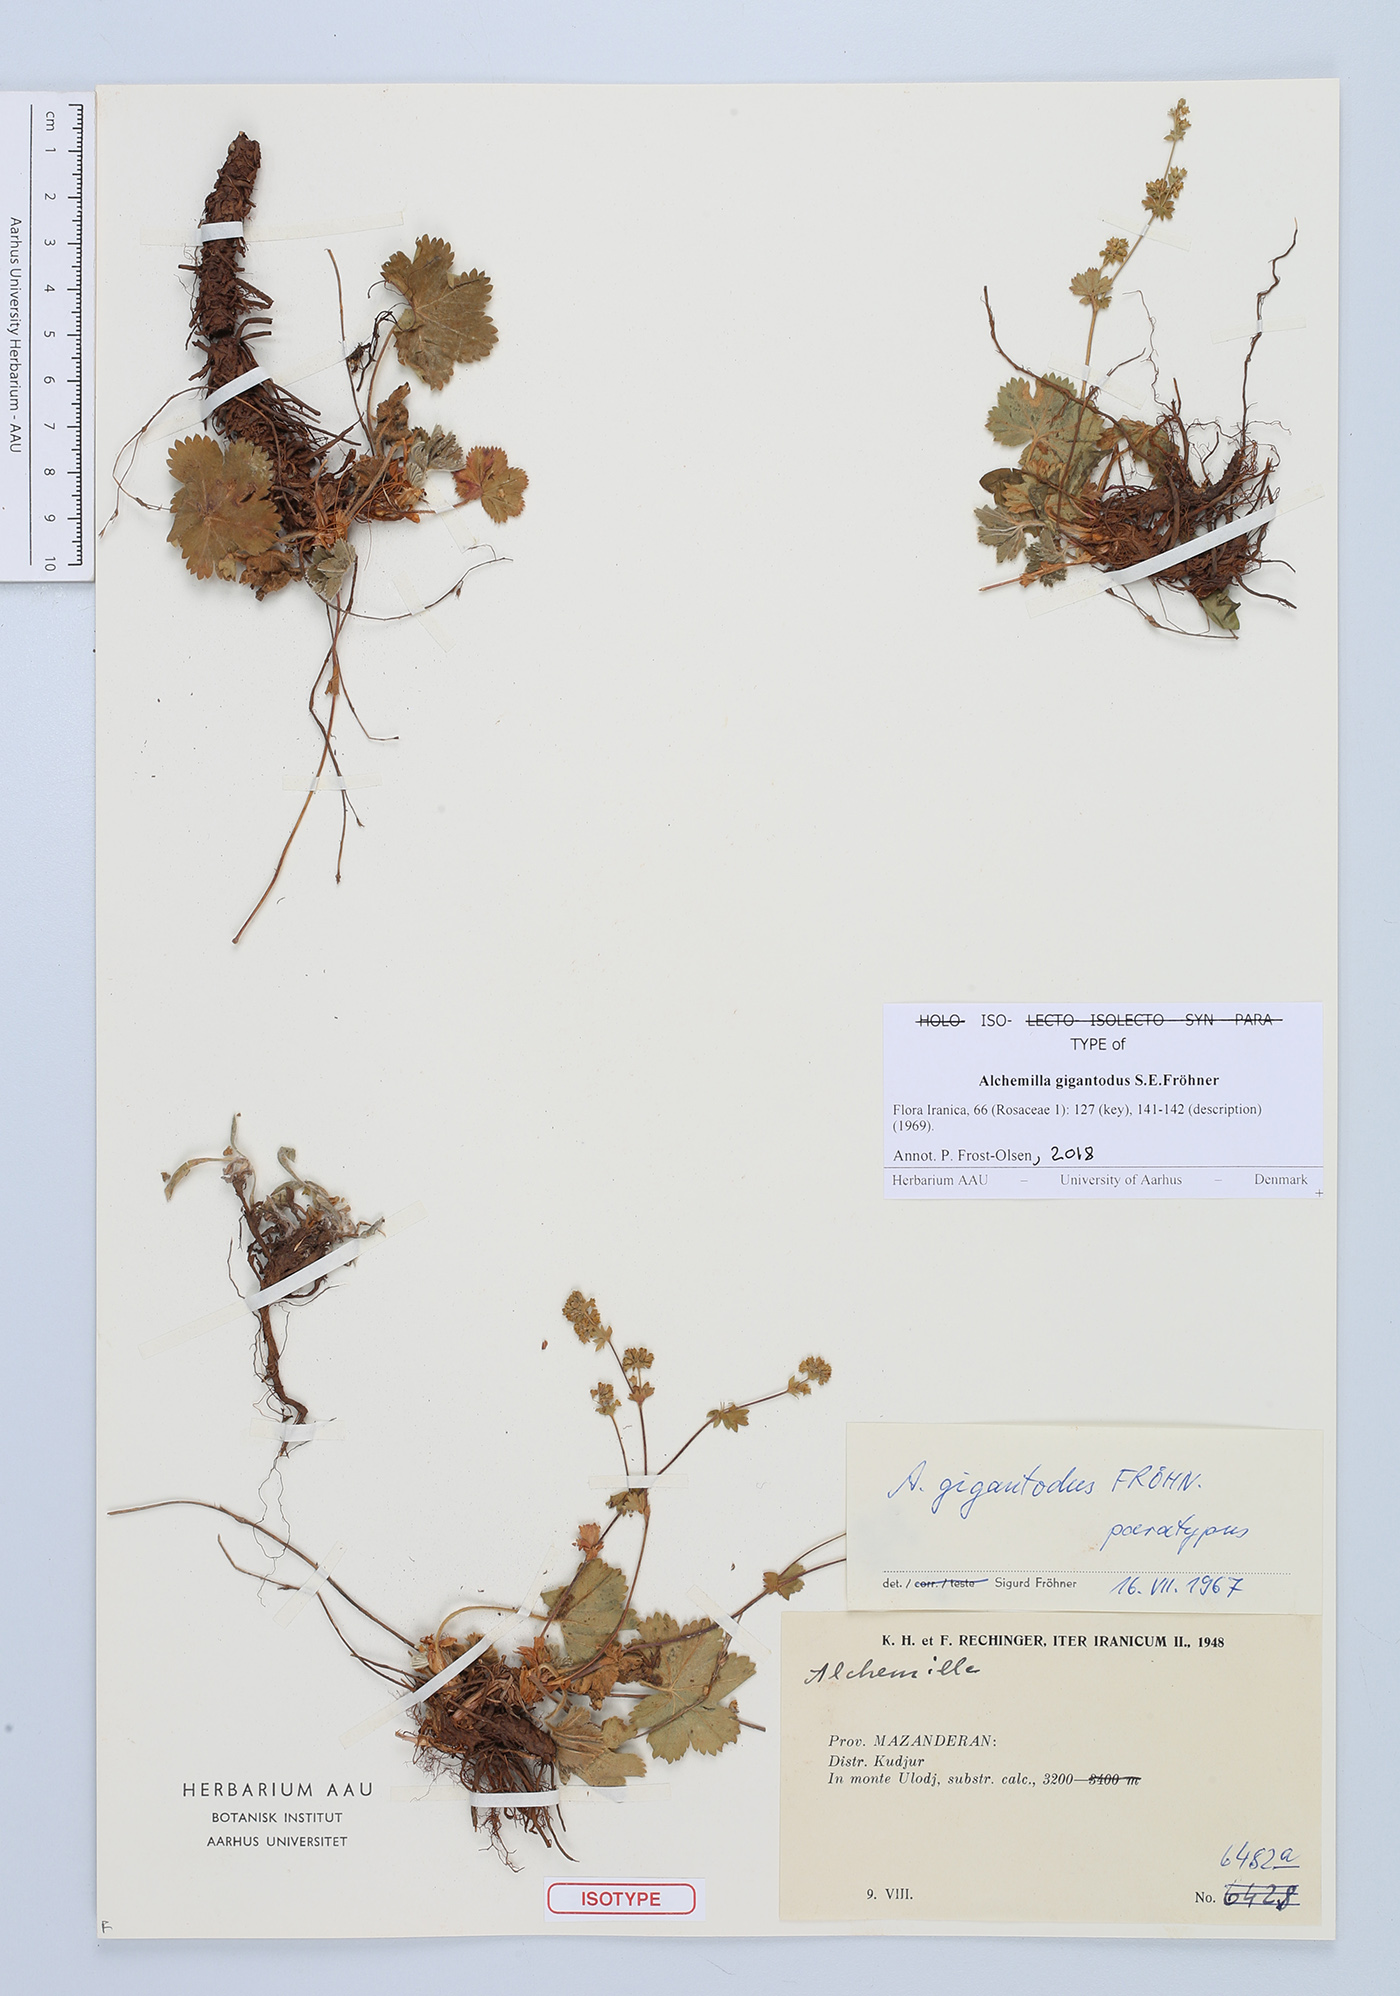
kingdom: Plantae
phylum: Tracheophyta
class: Magnoliopsida
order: Rosales
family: Rosaceae
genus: Alchemilla
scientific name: Alchemilla gigantodus
